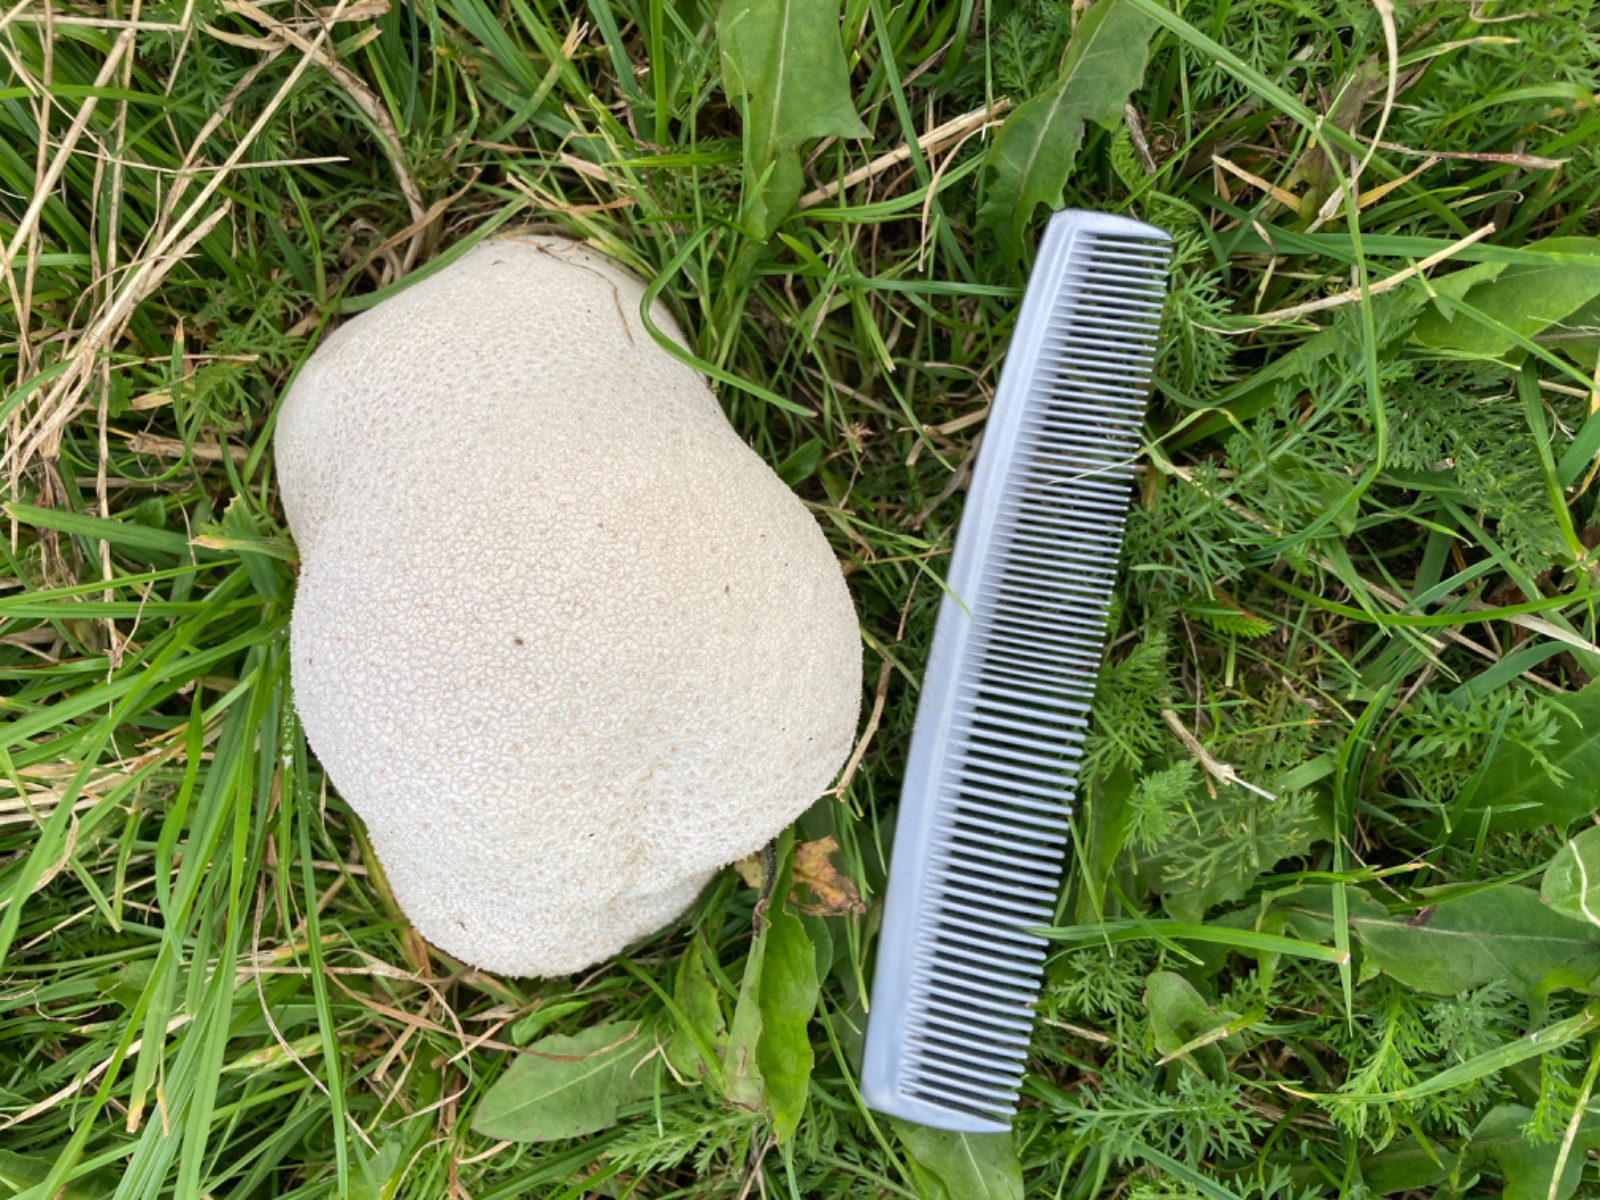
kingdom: Fungi
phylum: Basidiomycota
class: Agaricomycetes
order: Agaricales
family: Lycoperdaceae
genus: Bovistella
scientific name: Bovistella utriformis
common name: skællet støvbold
